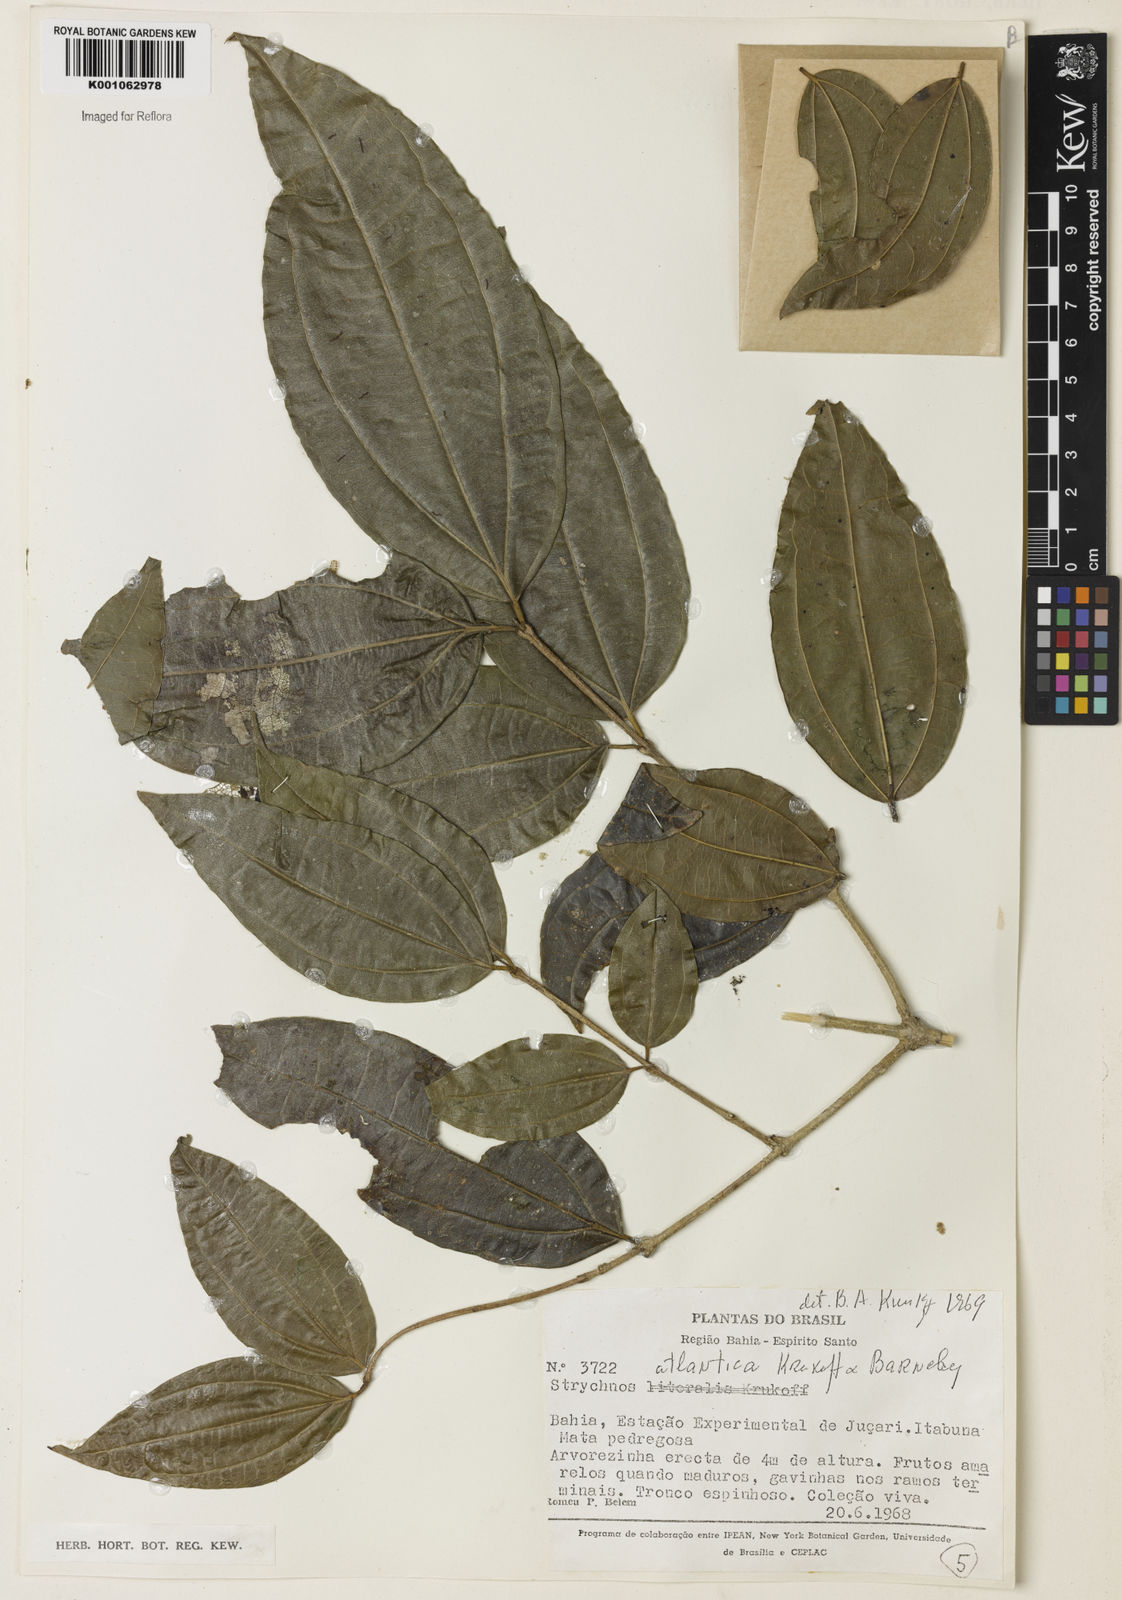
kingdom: Plantae
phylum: Tracheophyta
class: Magnoliopsida
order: Gentianales
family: Loganiaceae
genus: Strychnos
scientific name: Strychnos atlantica
